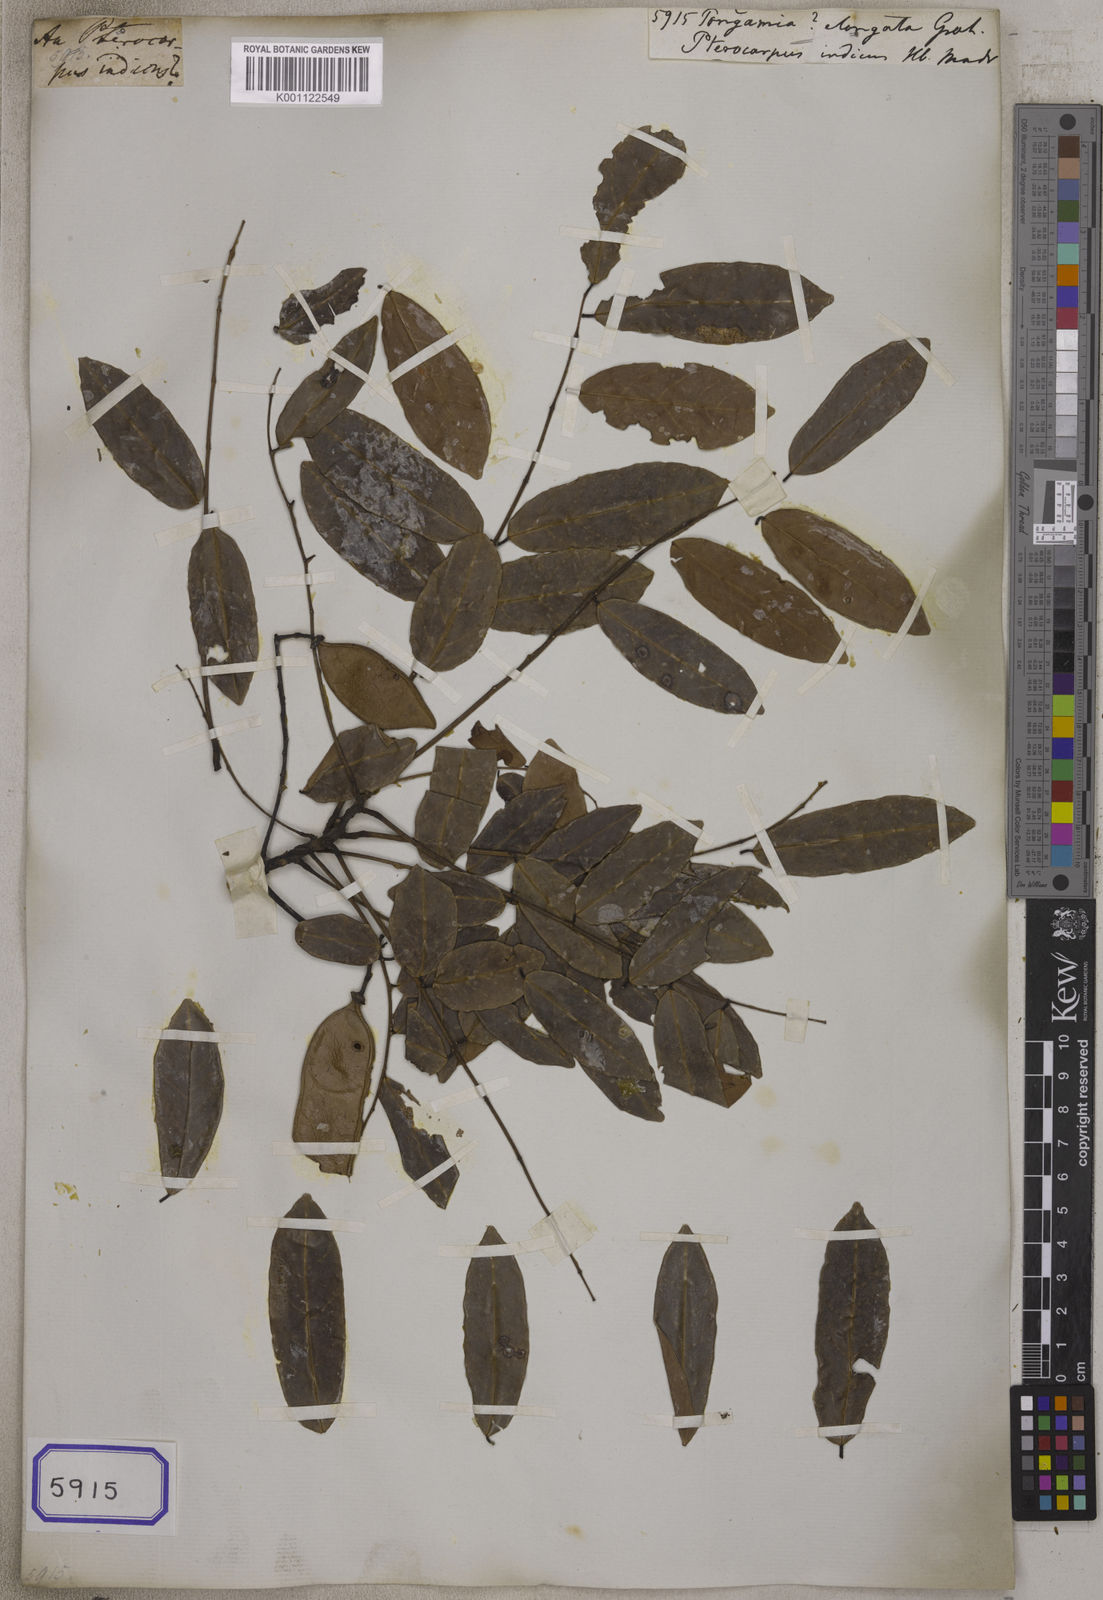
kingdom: Plantae
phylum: Tracheophyta
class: Magnoliopsida
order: Fabales
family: Fabaceae
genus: Derris
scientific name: Derris acuminata
